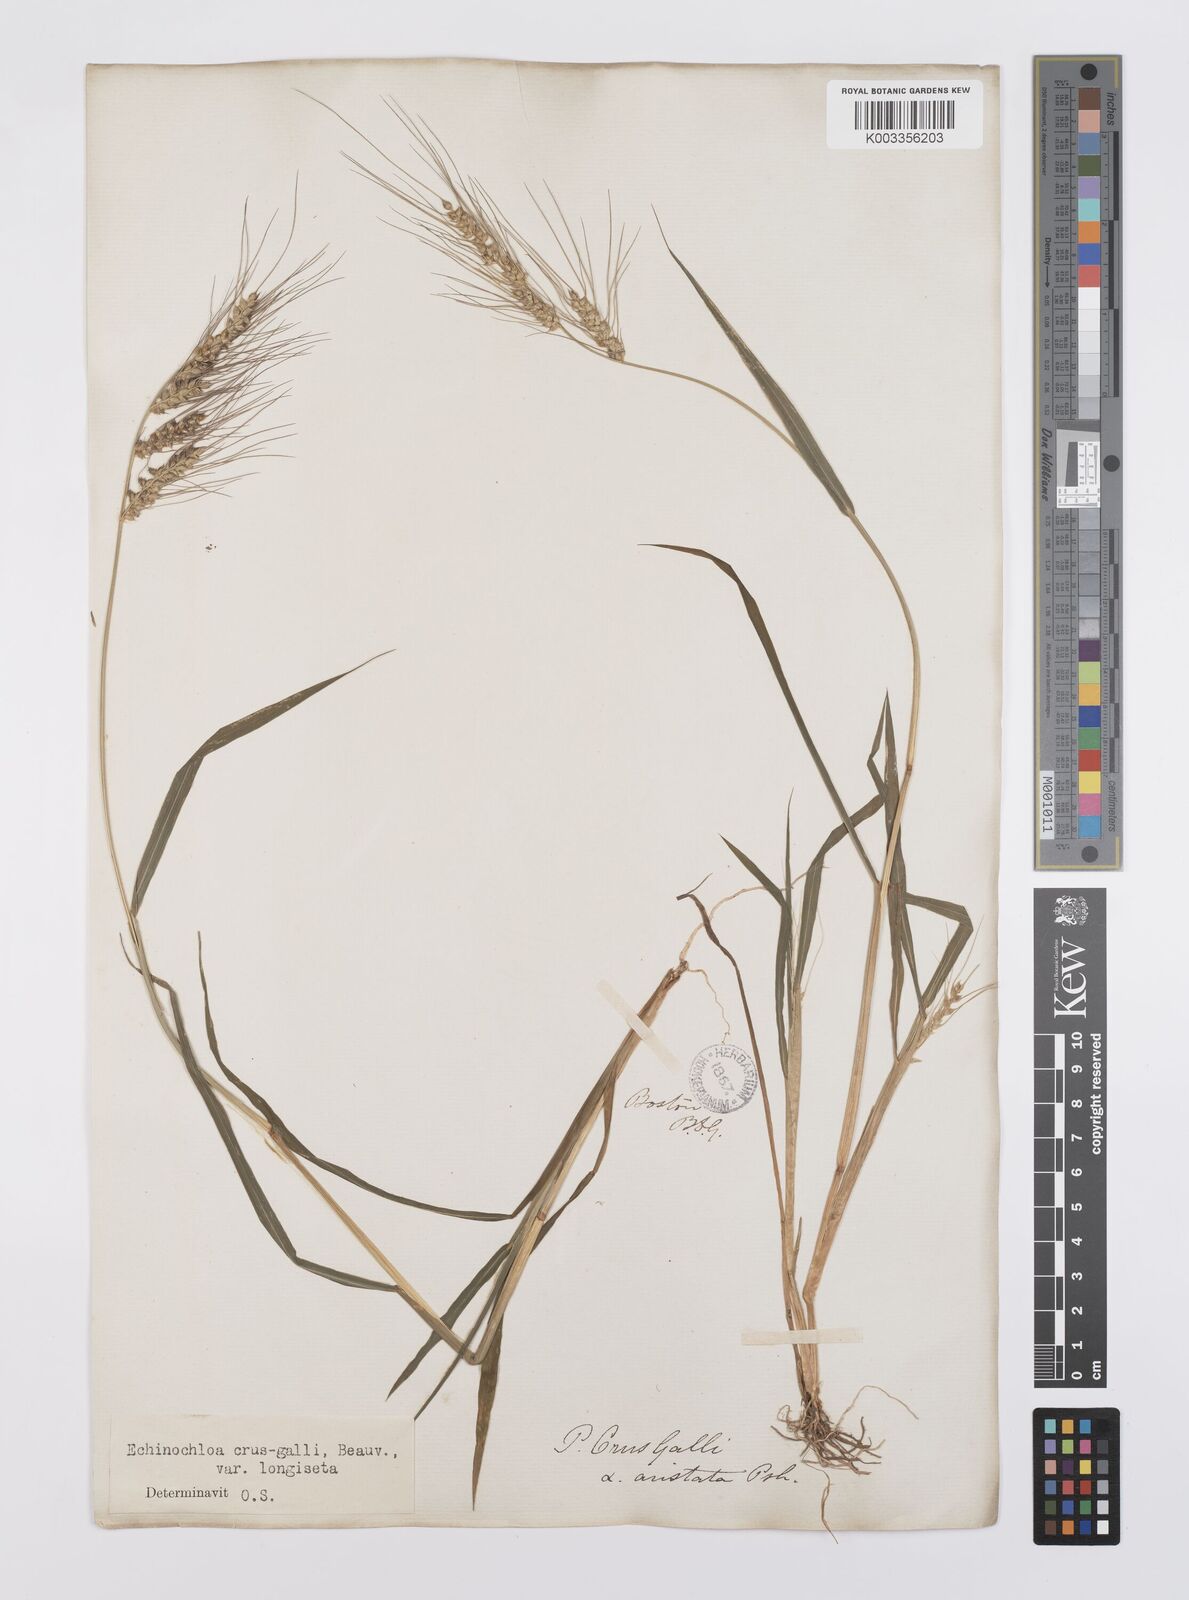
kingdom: Plantae
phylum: Tracheophyta
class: Liliopsida
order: Poales
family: Poaceae
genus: Echinochloa
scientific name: Echinochloa crus-galli
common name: Cockspur
